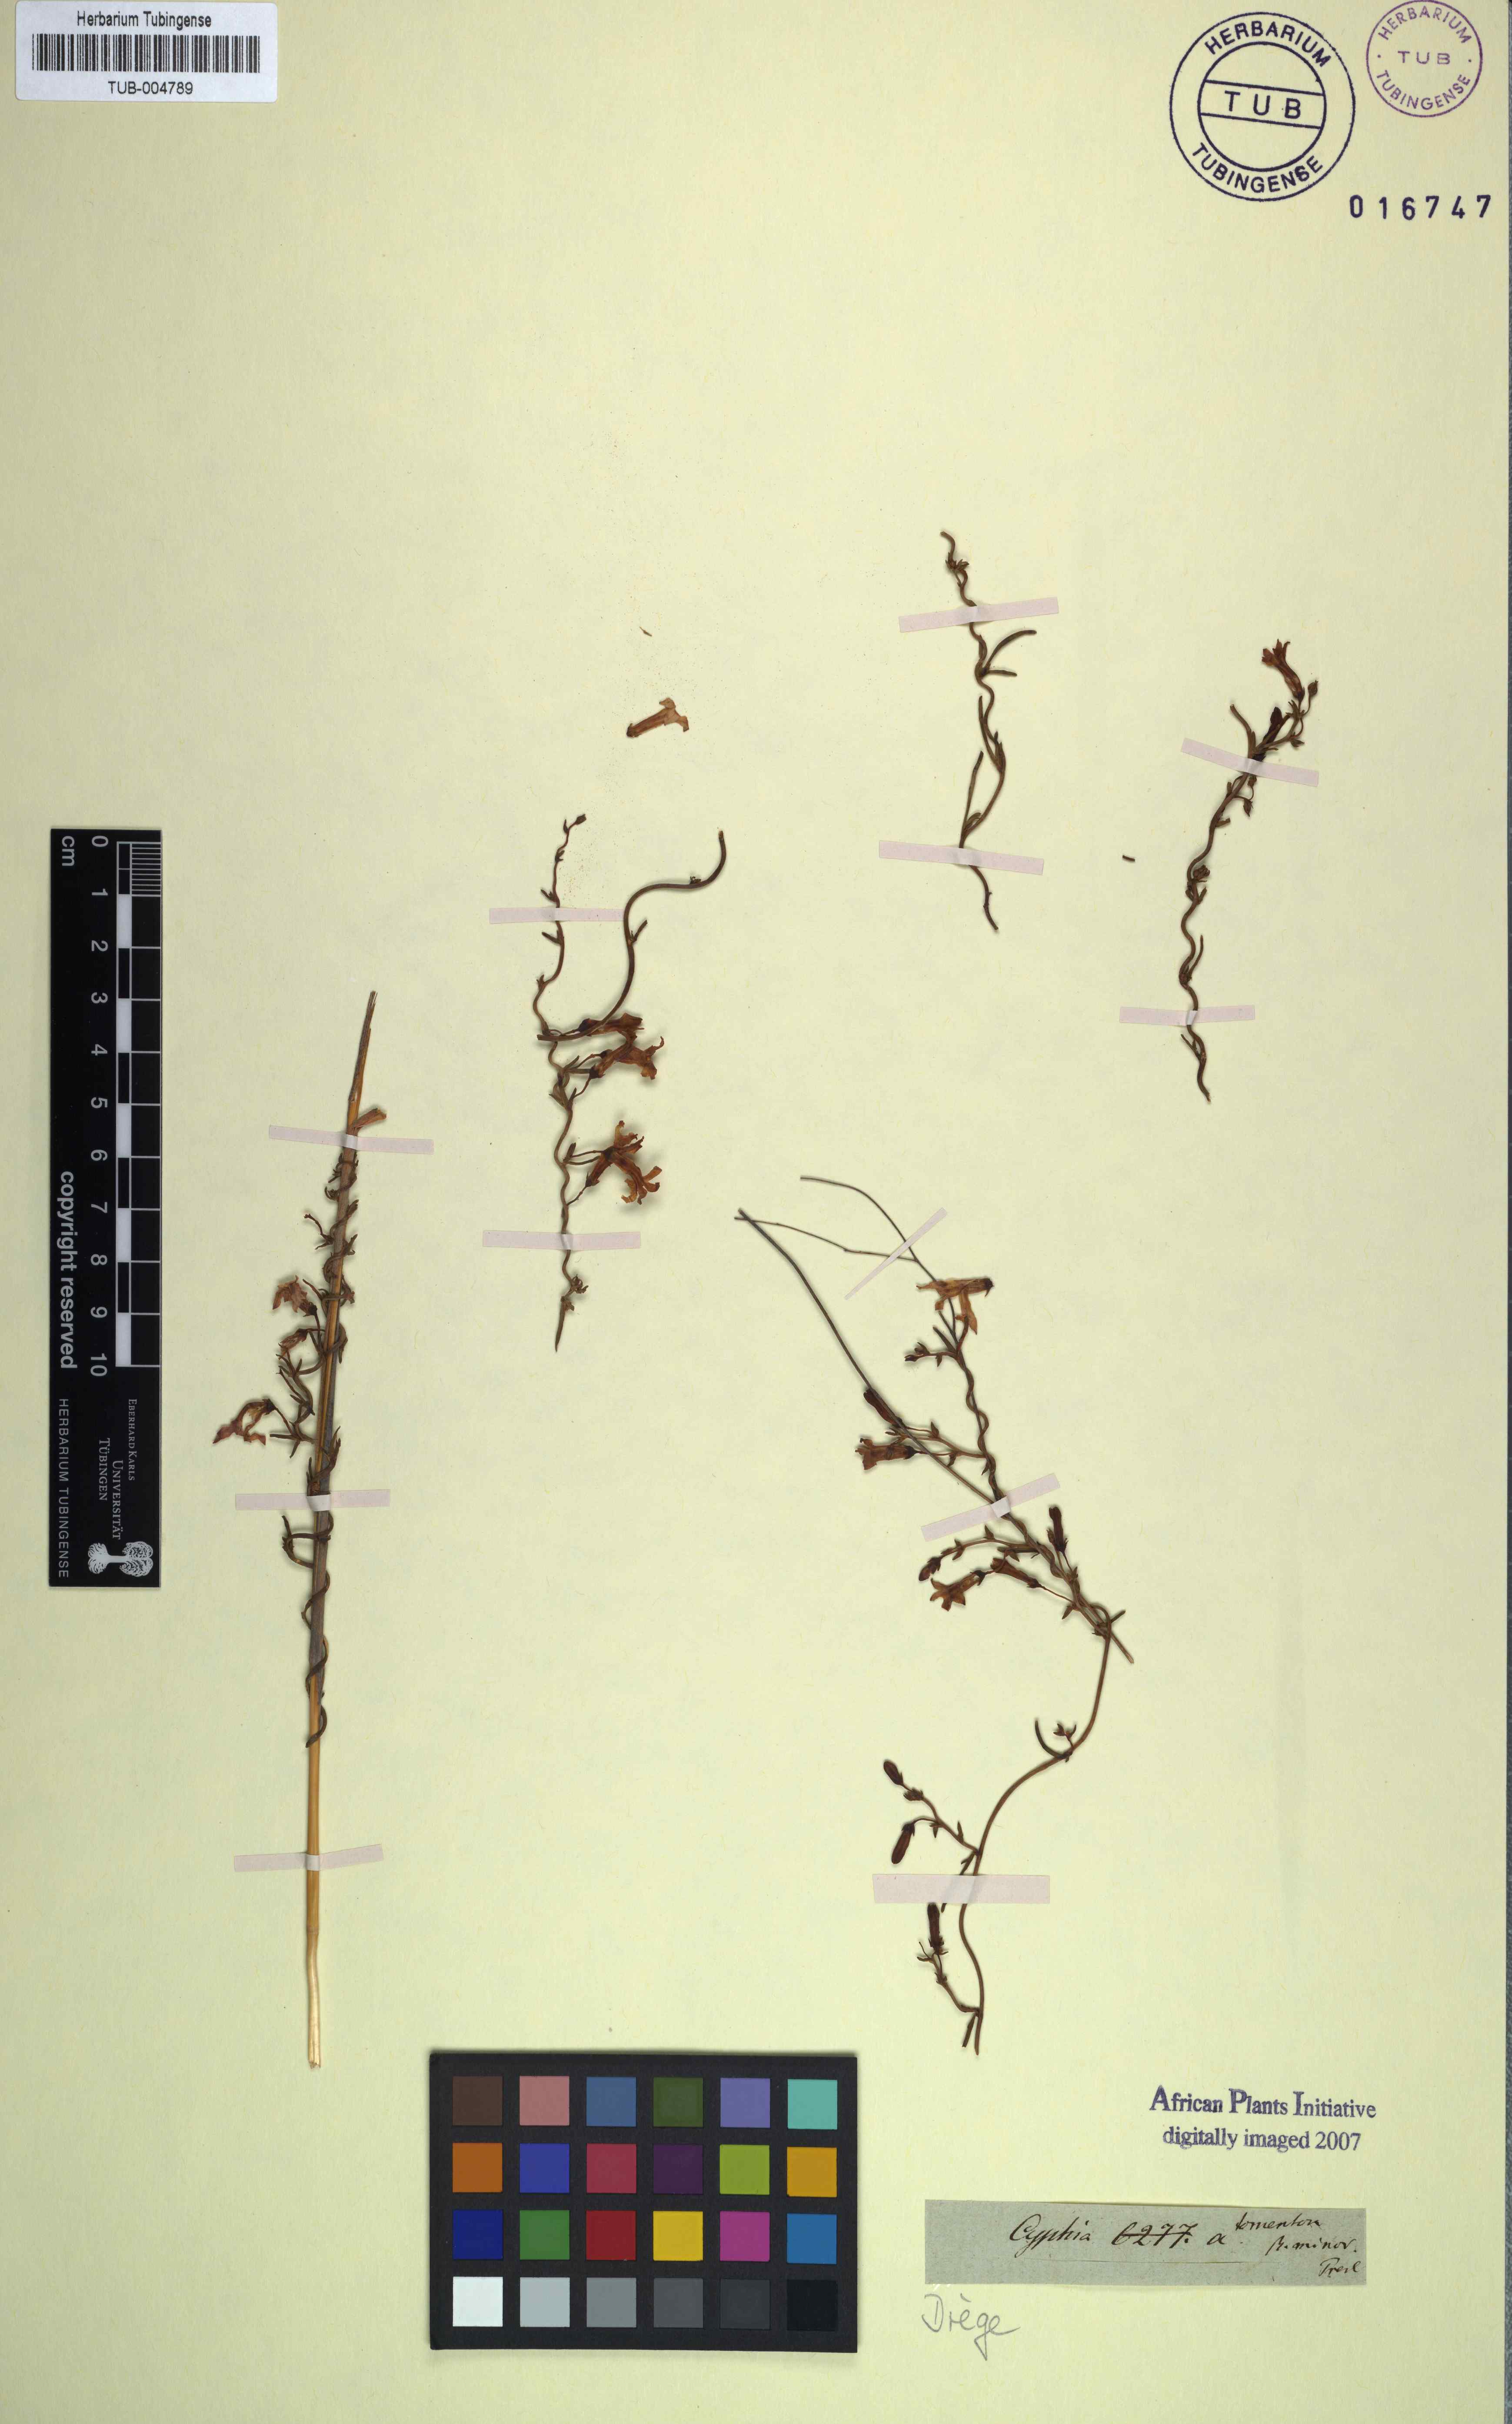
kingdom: Plantae
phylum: Tracheophyta
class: Magnoliopsida
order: Asterales
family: Campanulaceae
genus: Cyphia
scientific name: Cyphia digitata
